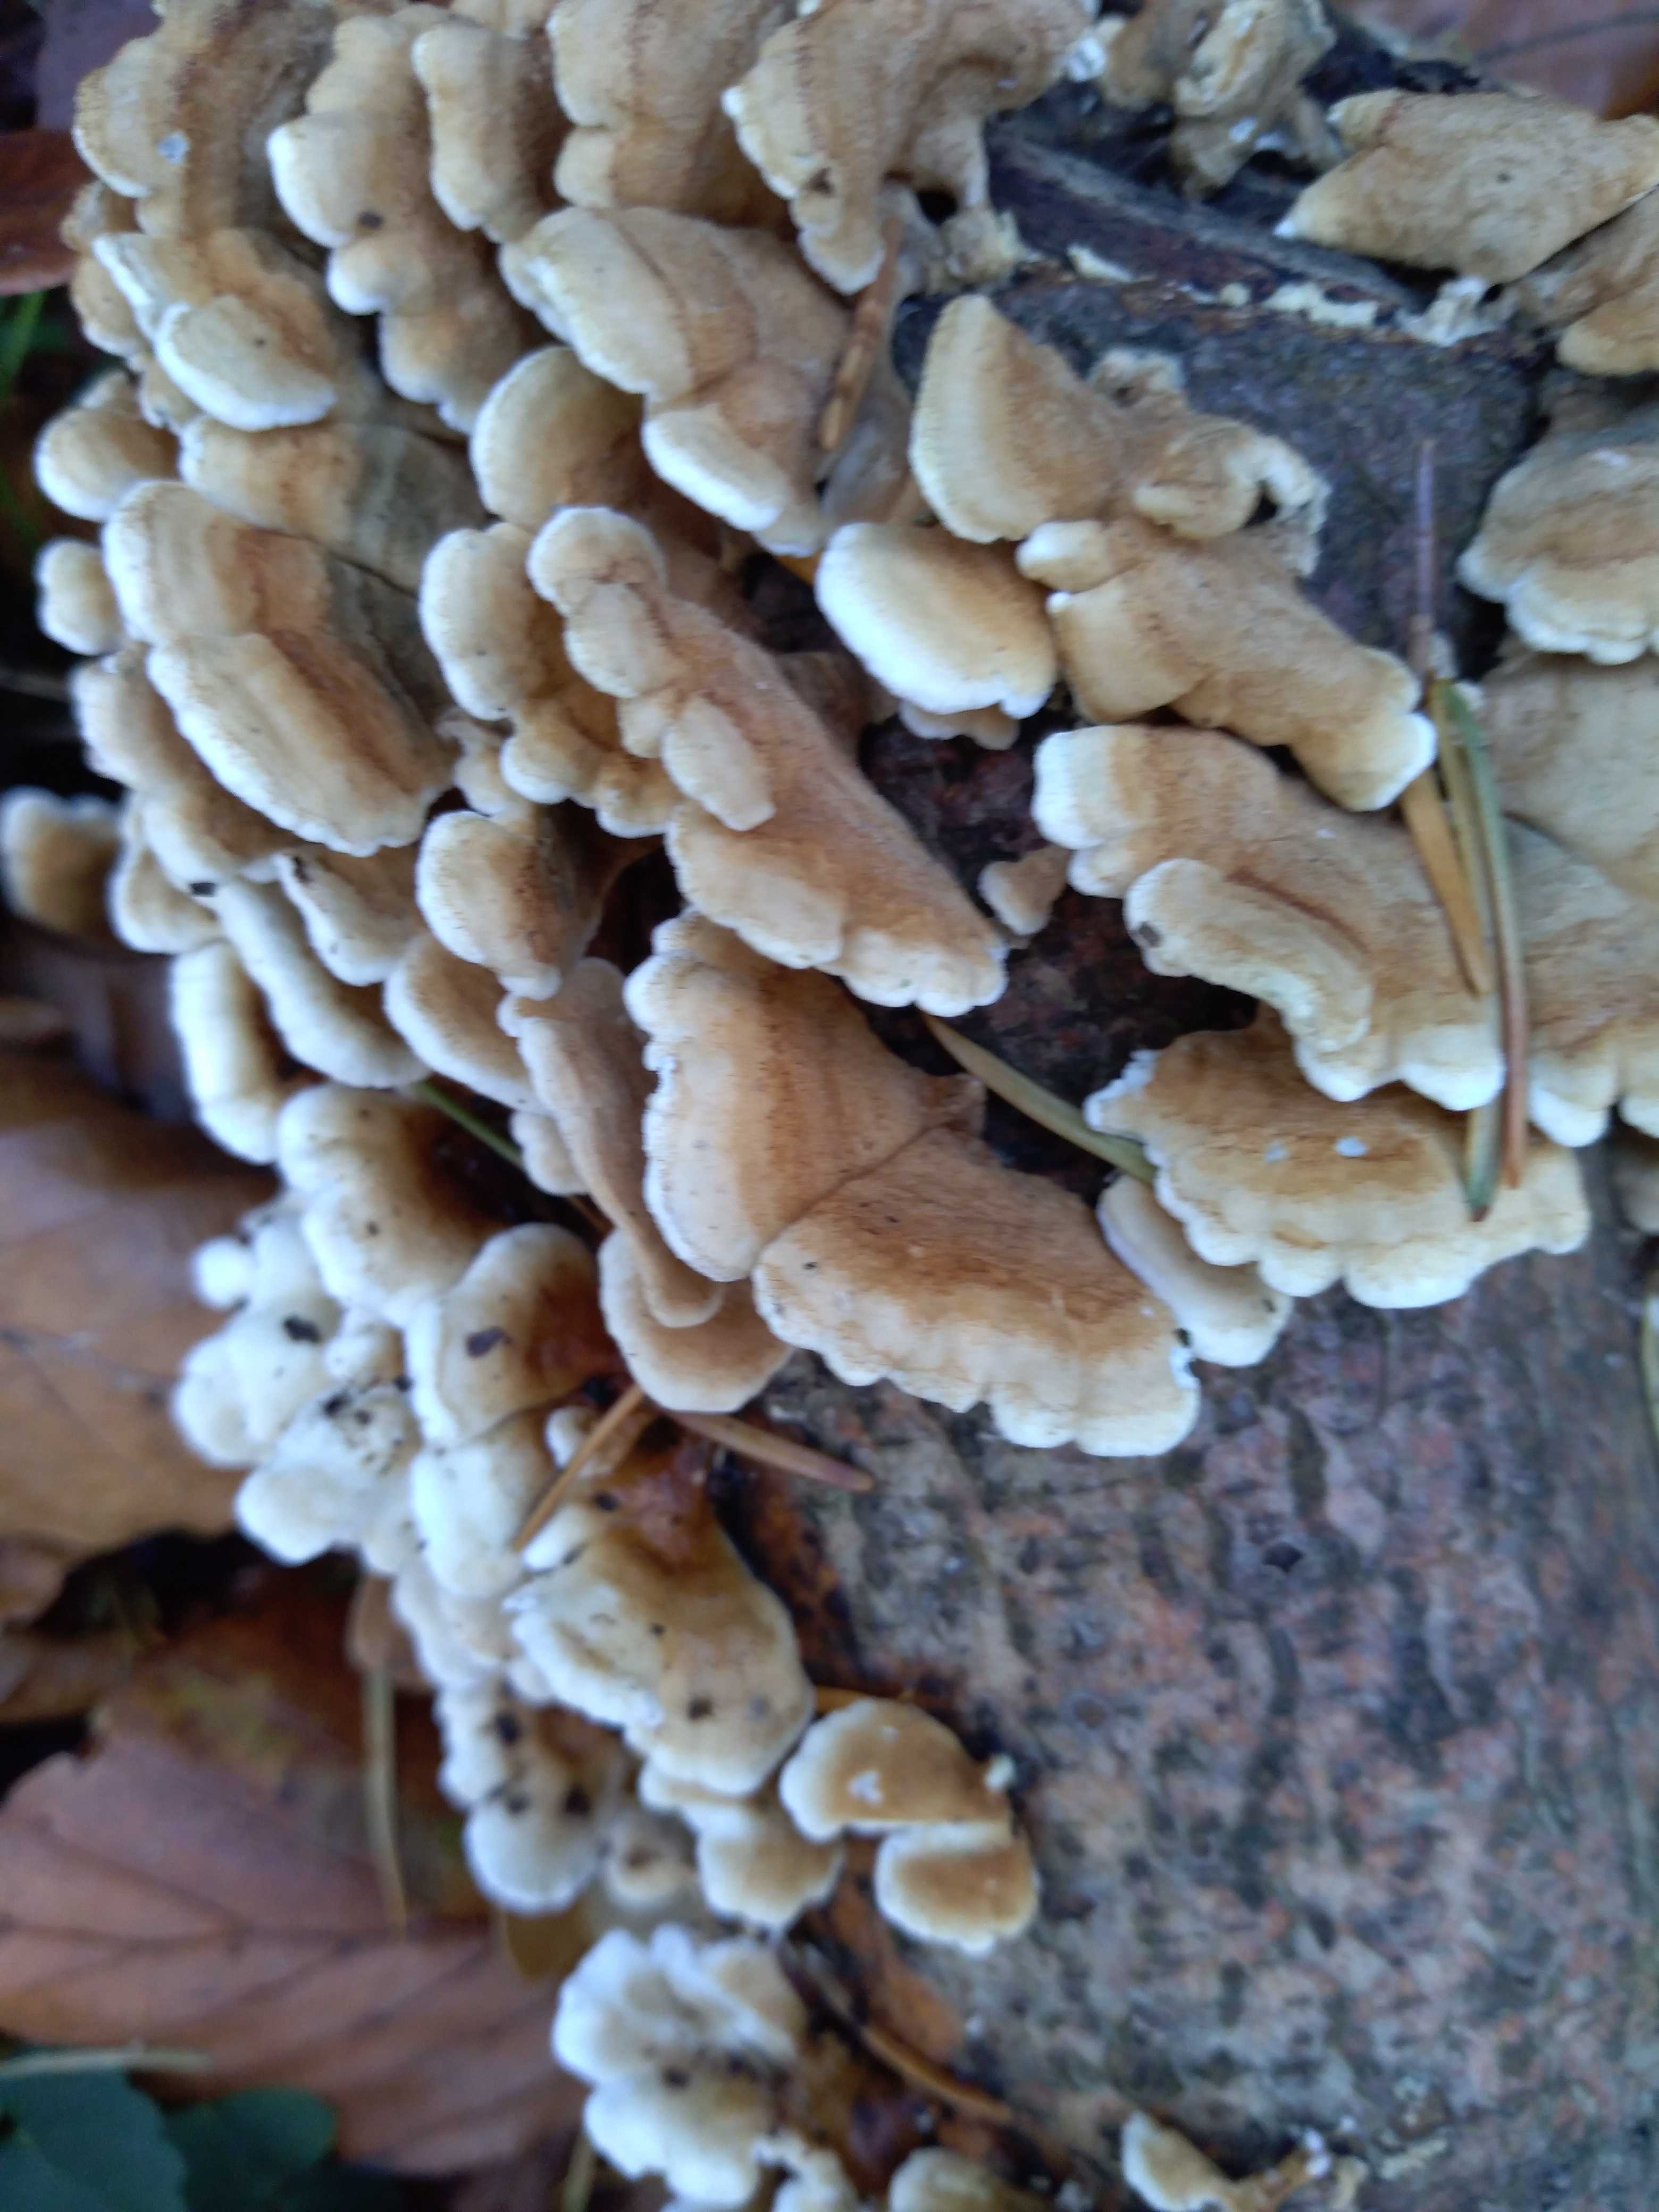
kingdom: Fungi
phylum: Basidiomycota
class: Agaricomycetes
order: Amylocorticiales
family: Amylocorticiaceae
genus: Plicaturopsis
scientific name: Plicaturopsis crispa
